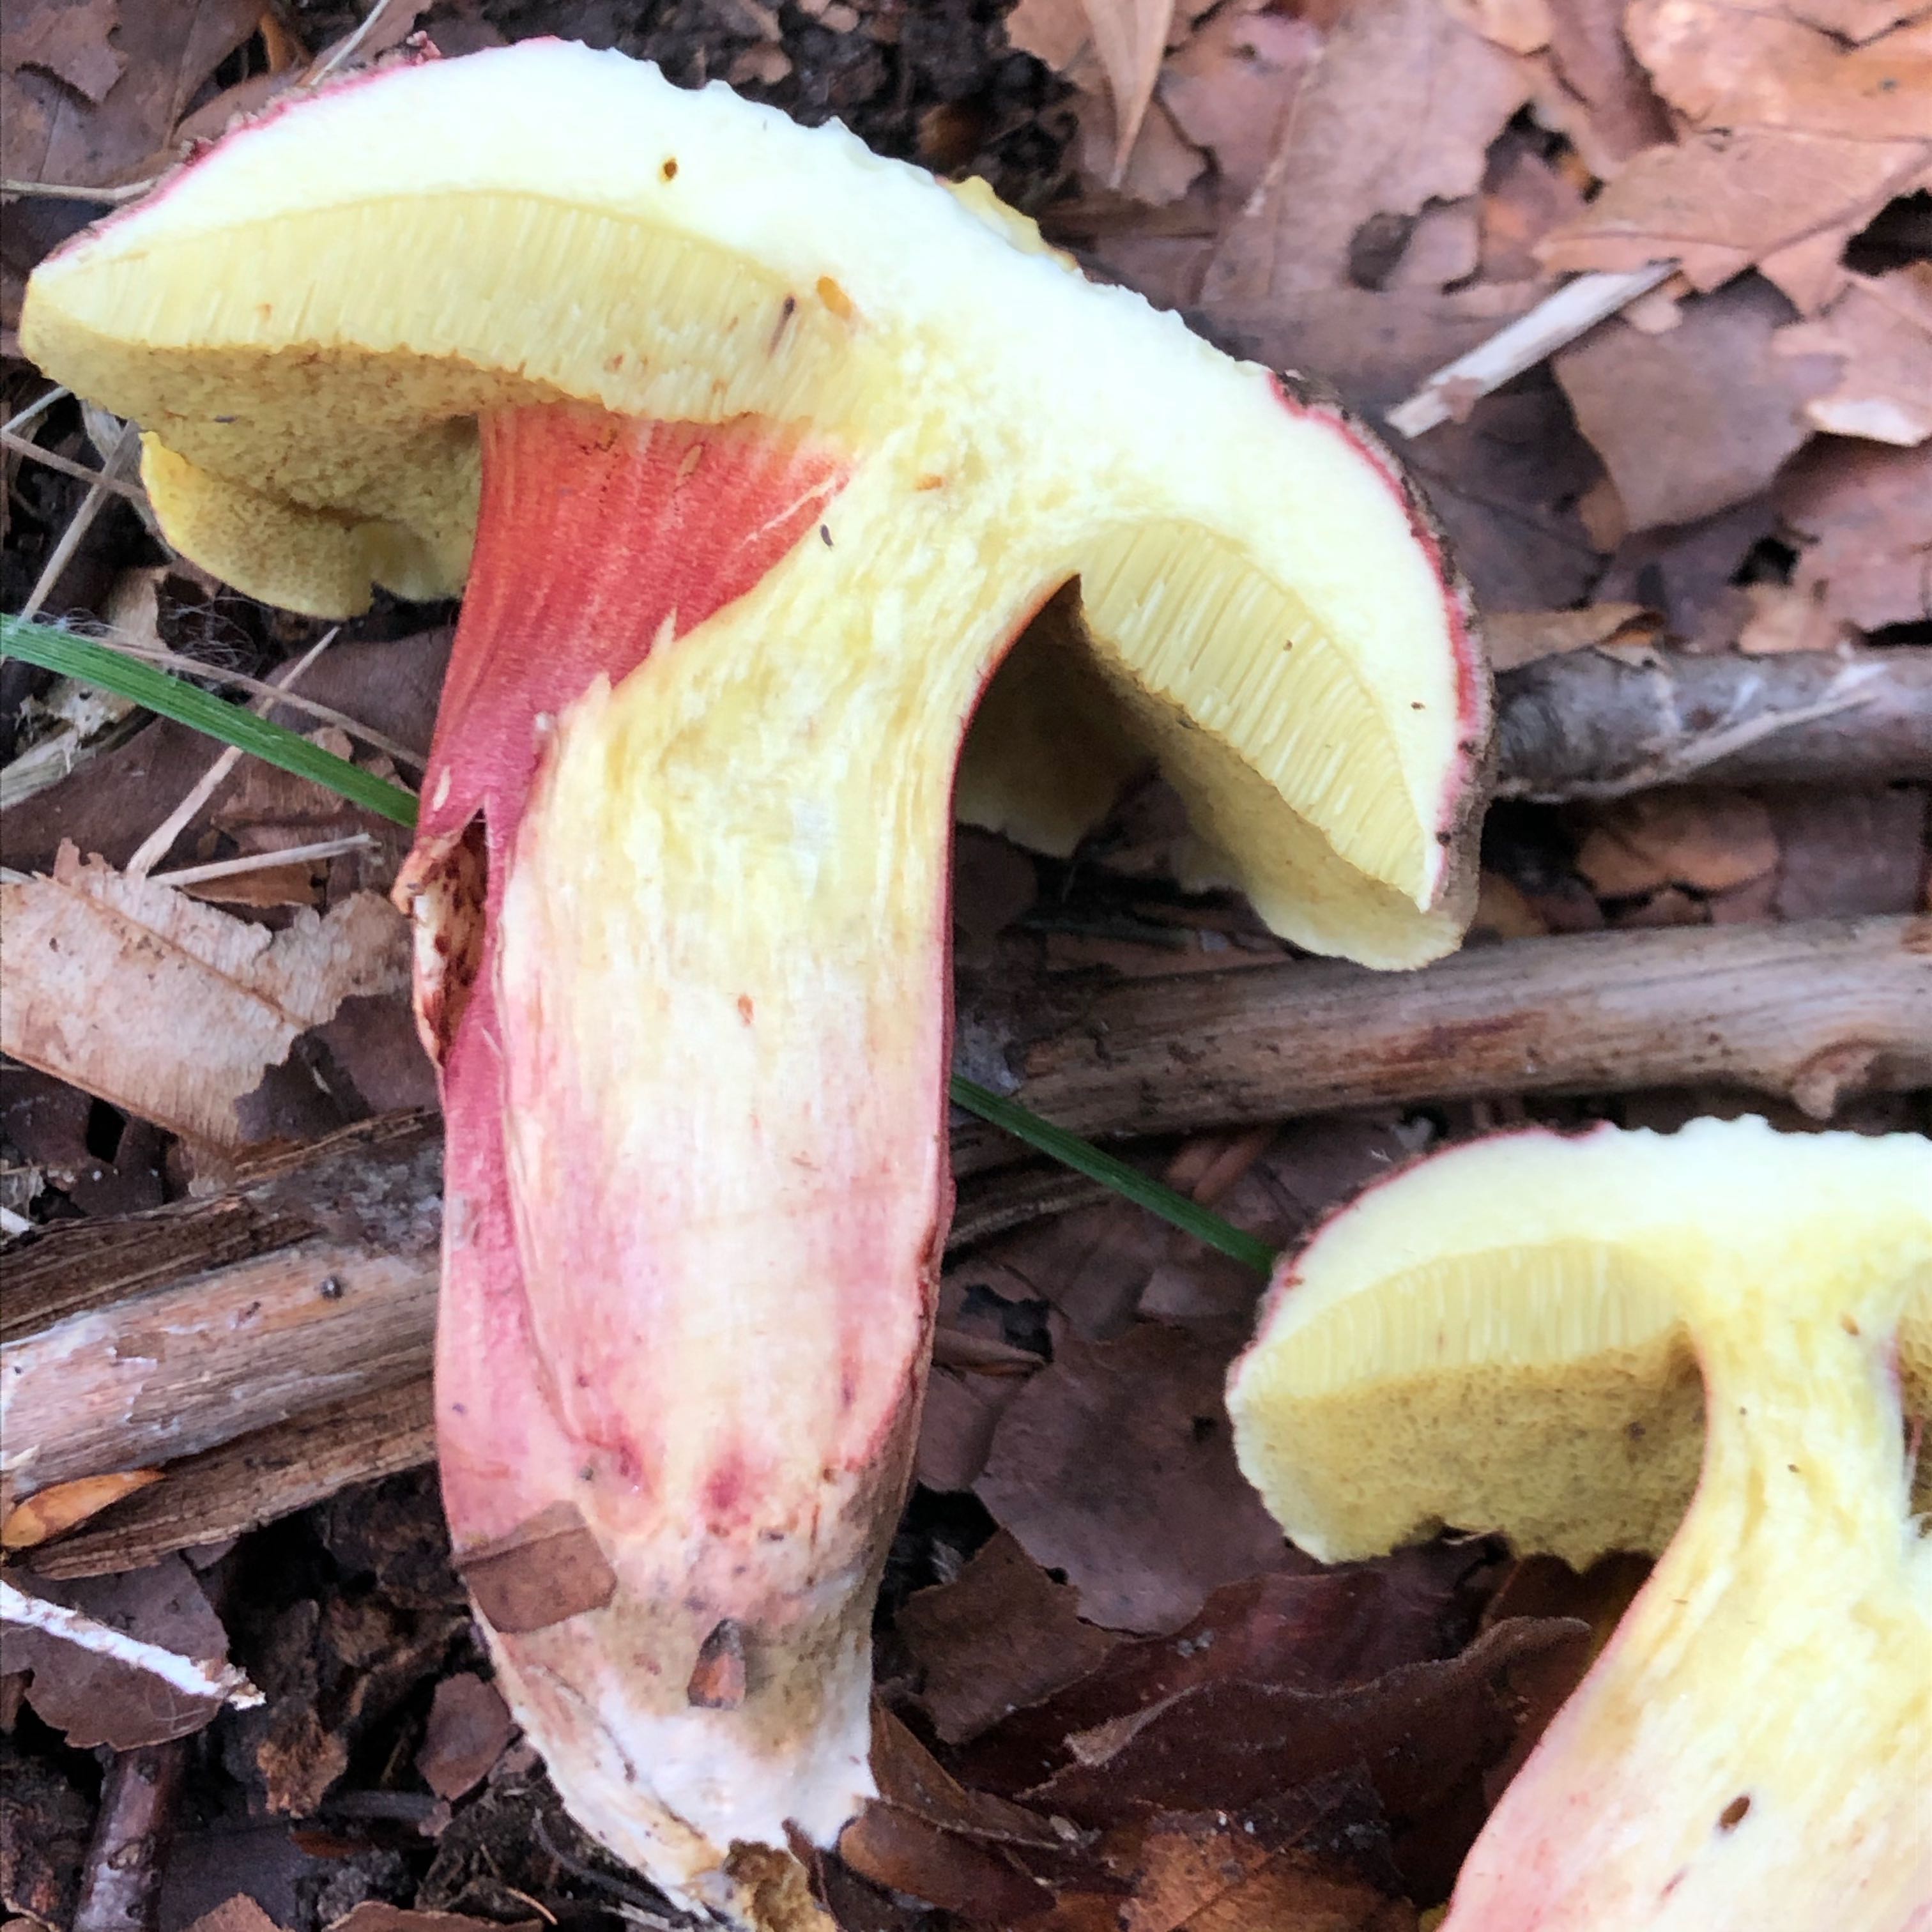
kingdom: Fungi
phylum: Basidiomycota
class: Agaricomycetes
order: Boletales
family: Boletaceae
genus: Xerocomellus
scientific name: Xerocomellus chrysenteron
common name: rødsprukken rørhat
